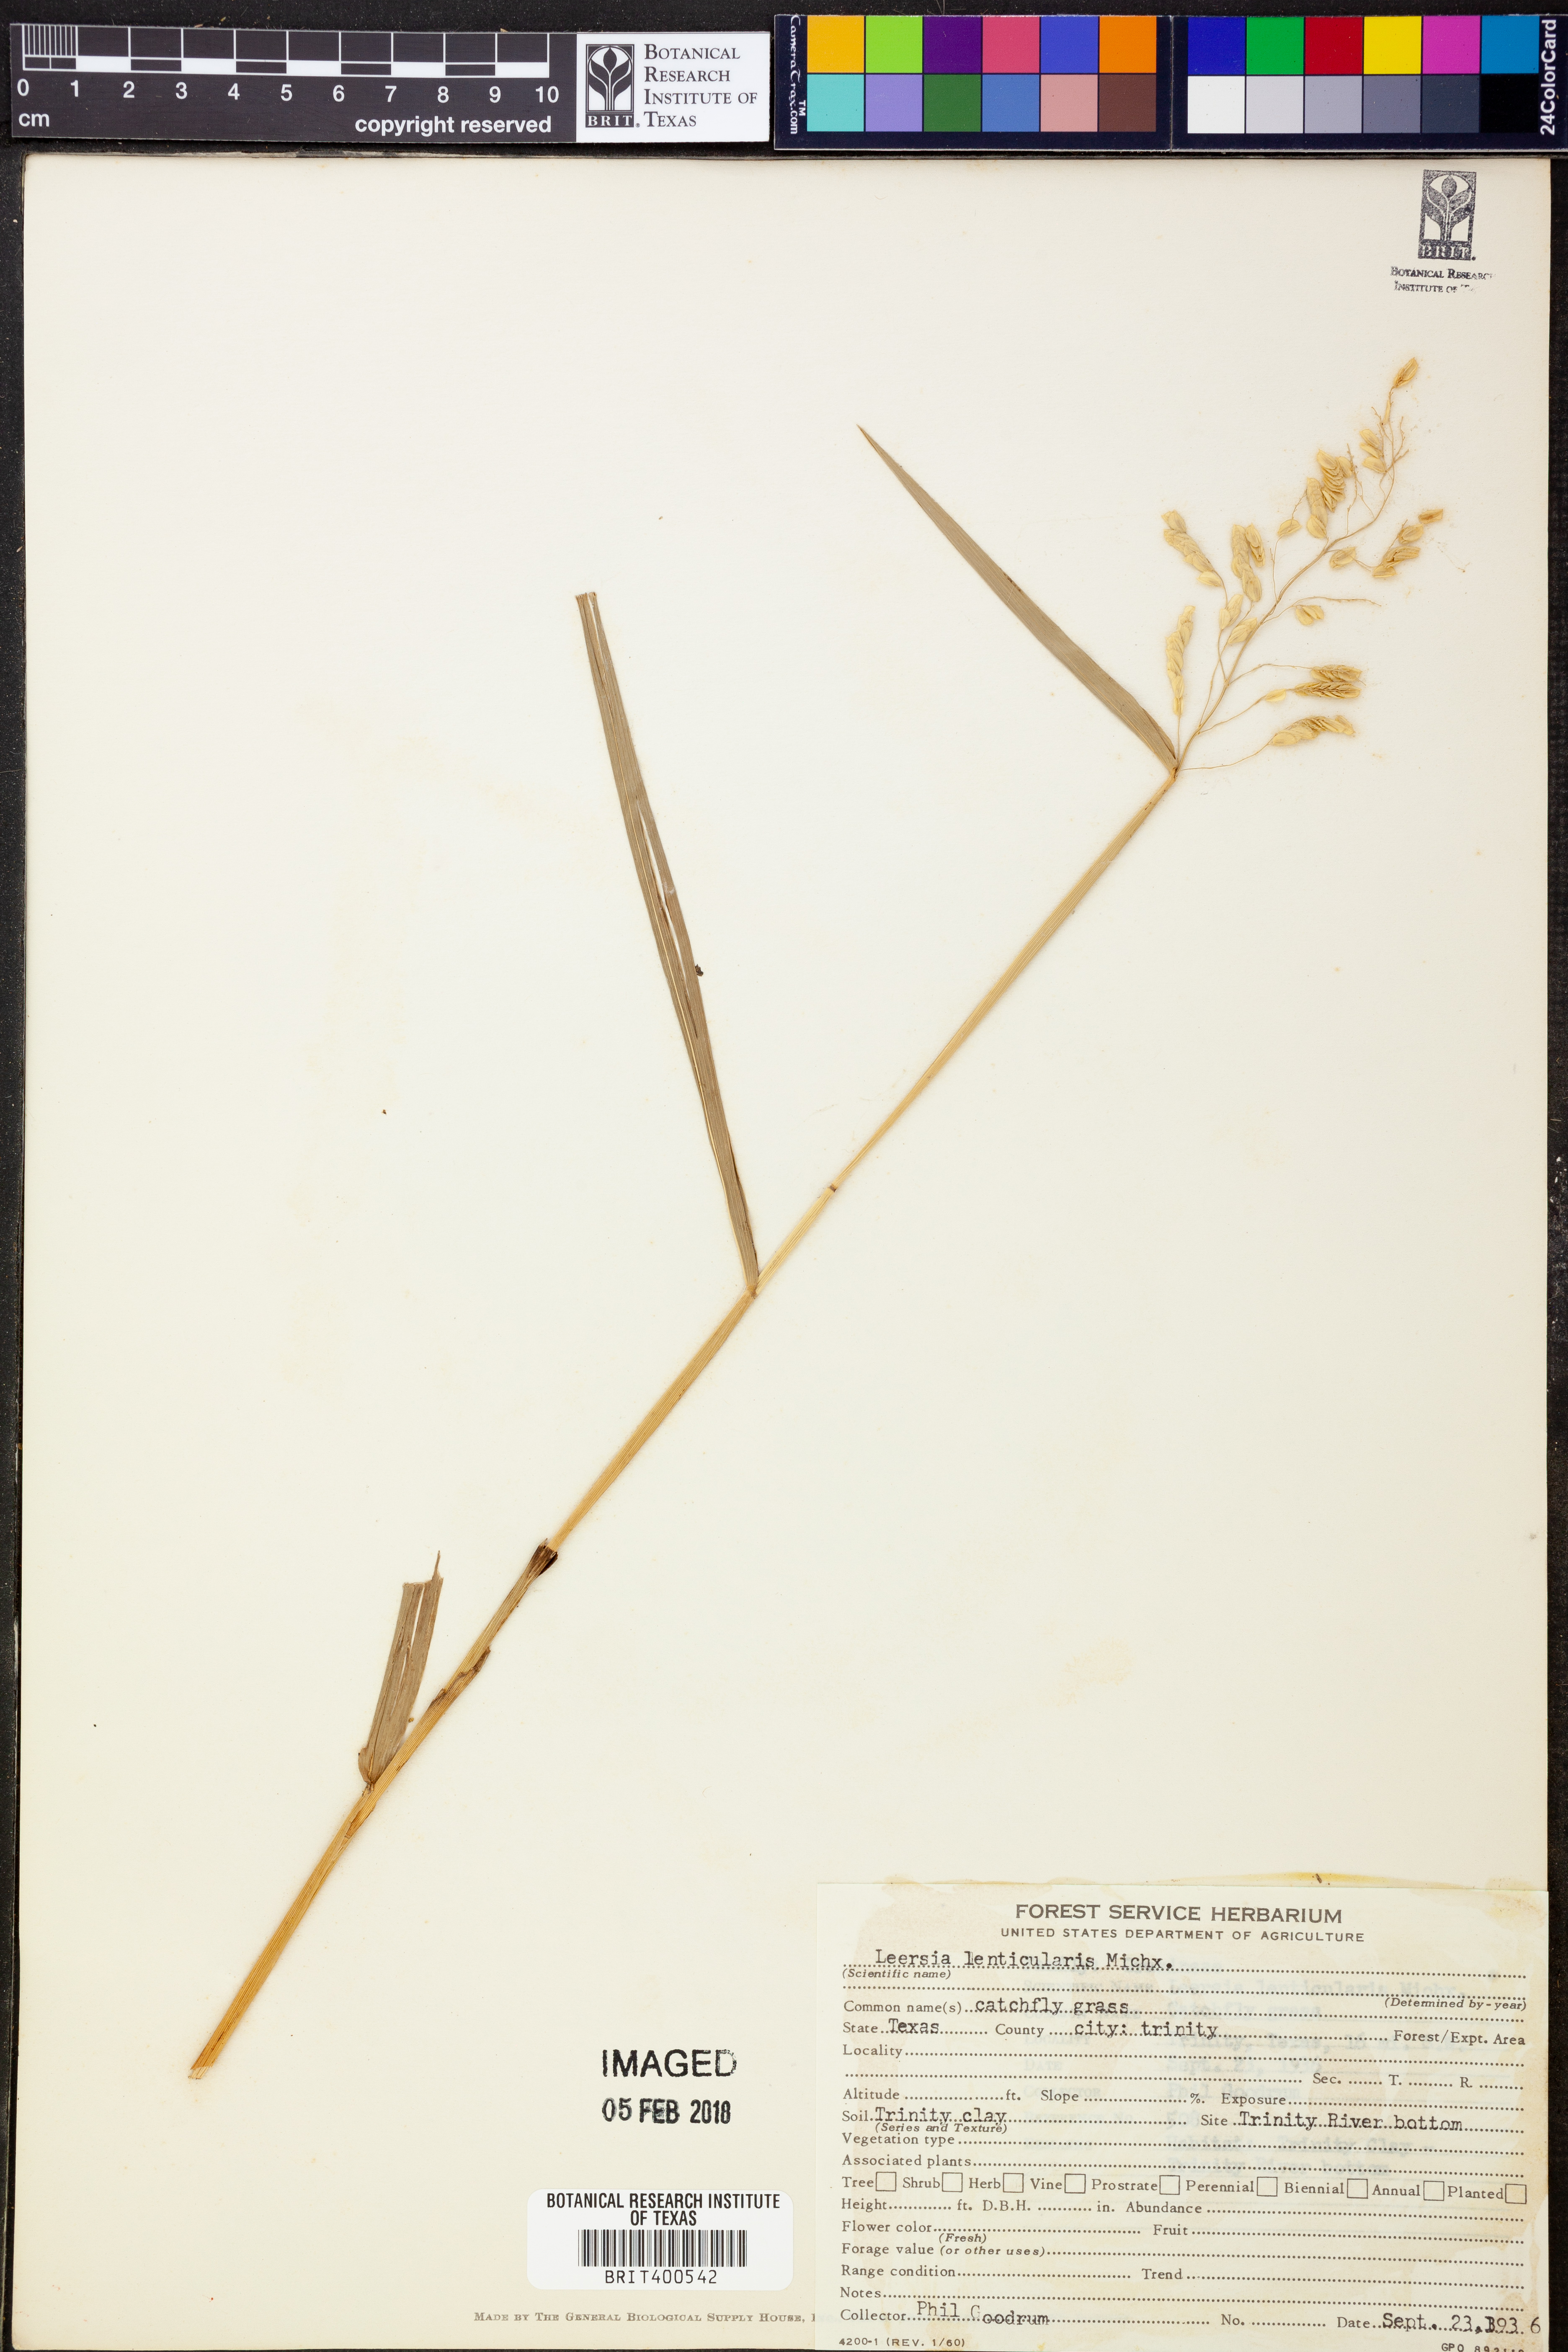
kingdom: Plantae
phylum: Tracheophyta
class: Liliopsida
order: Poales
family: Poaceae
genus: Leersia
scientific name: Leersia lenticularis
